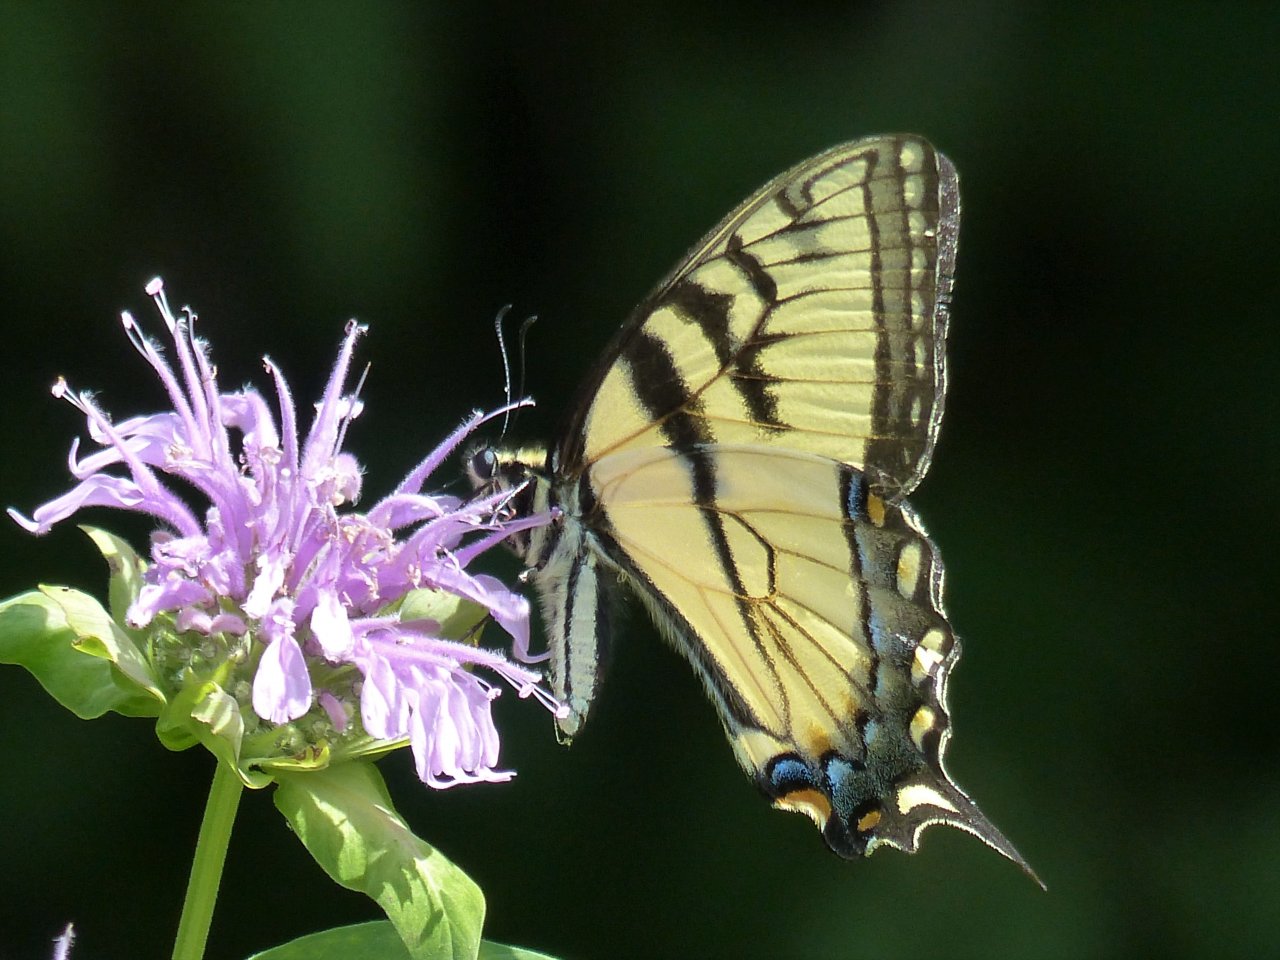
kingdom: Animalia
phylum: Arthropoda
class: Insecta
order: Lepidoptera
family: Papilionidae
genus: Pterourus
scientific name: Pterourus glaucus
